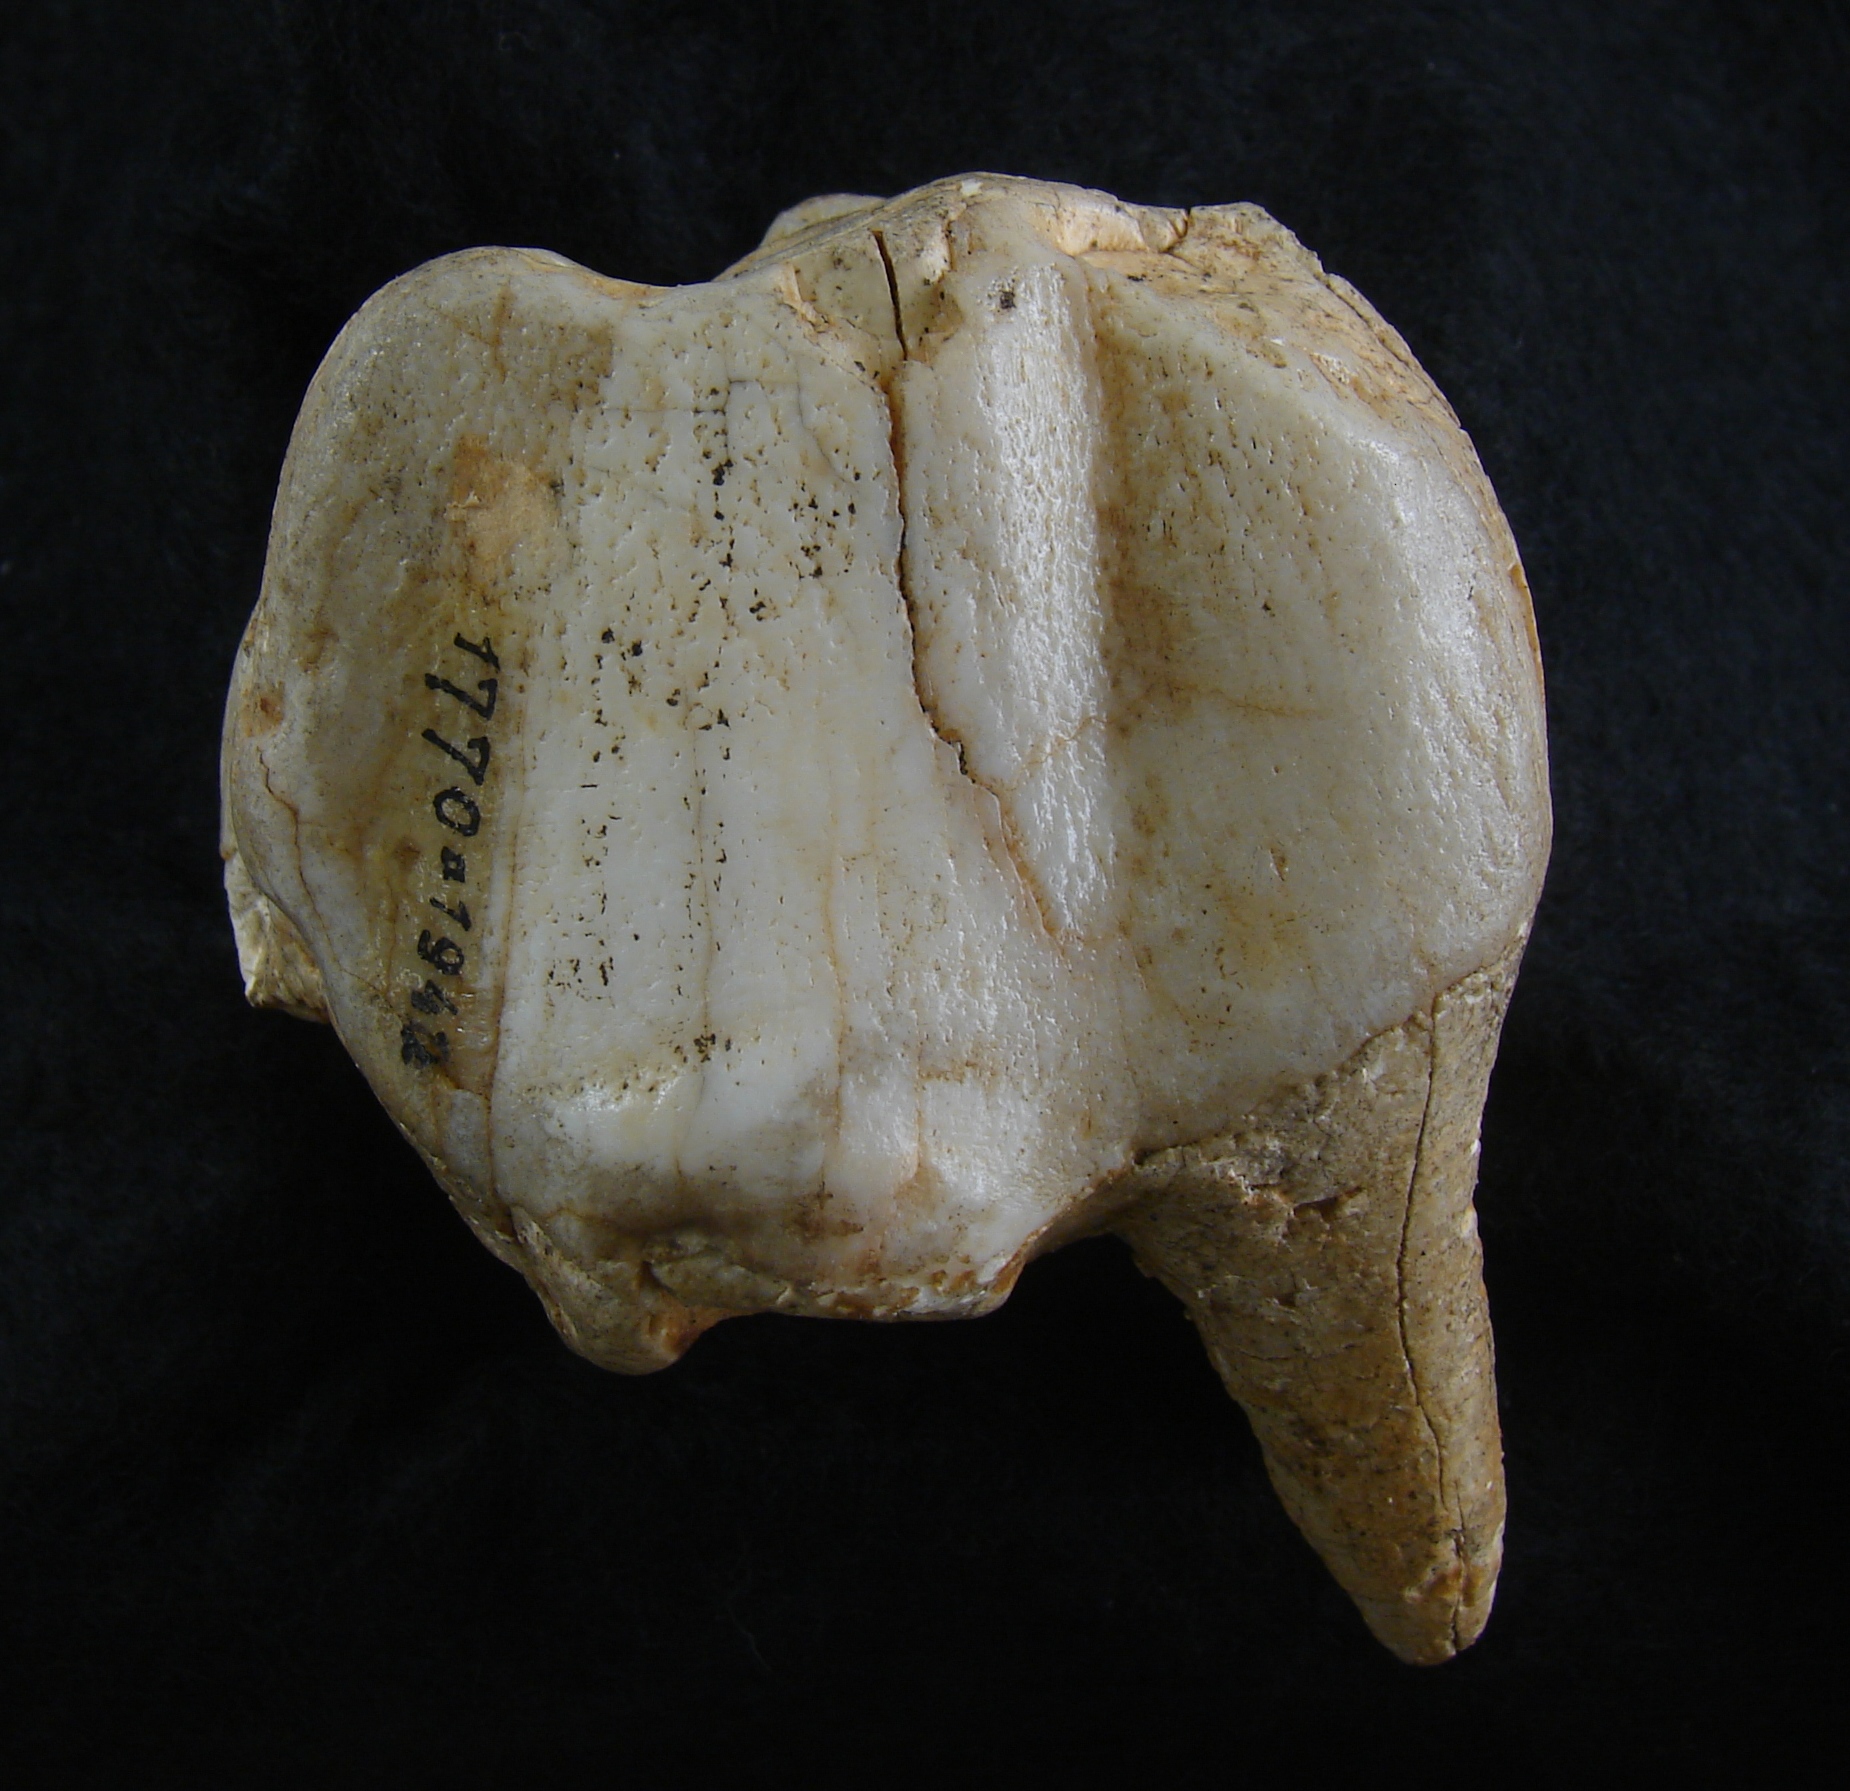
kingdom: Animalia
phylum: Chordata
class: Mammalia
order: Perissodactyla
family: Rhinocerotidae
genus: Rhinoceros
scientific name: Rhinoceros
